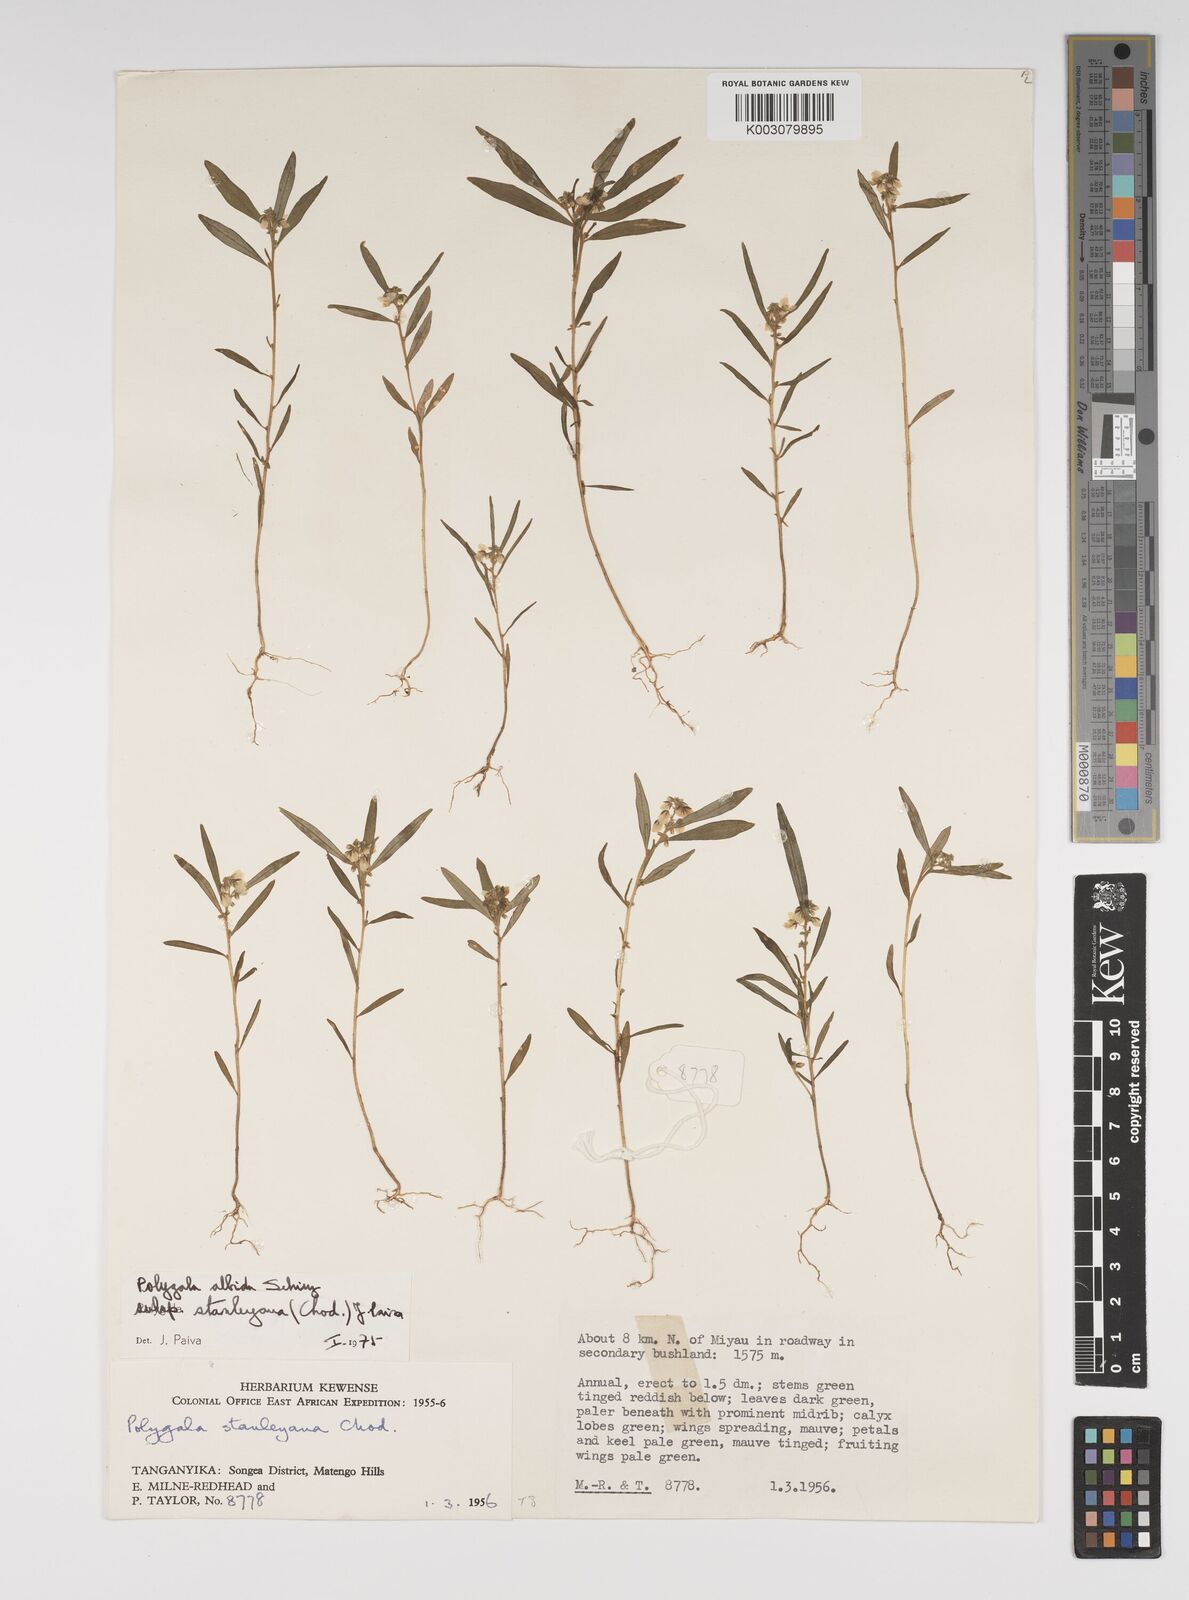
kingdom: Plantae
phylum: Tracheophyta
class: Magnoliopsida
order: Fabales
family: Polygalaceae
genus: Polygala
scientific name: Polygala albida
